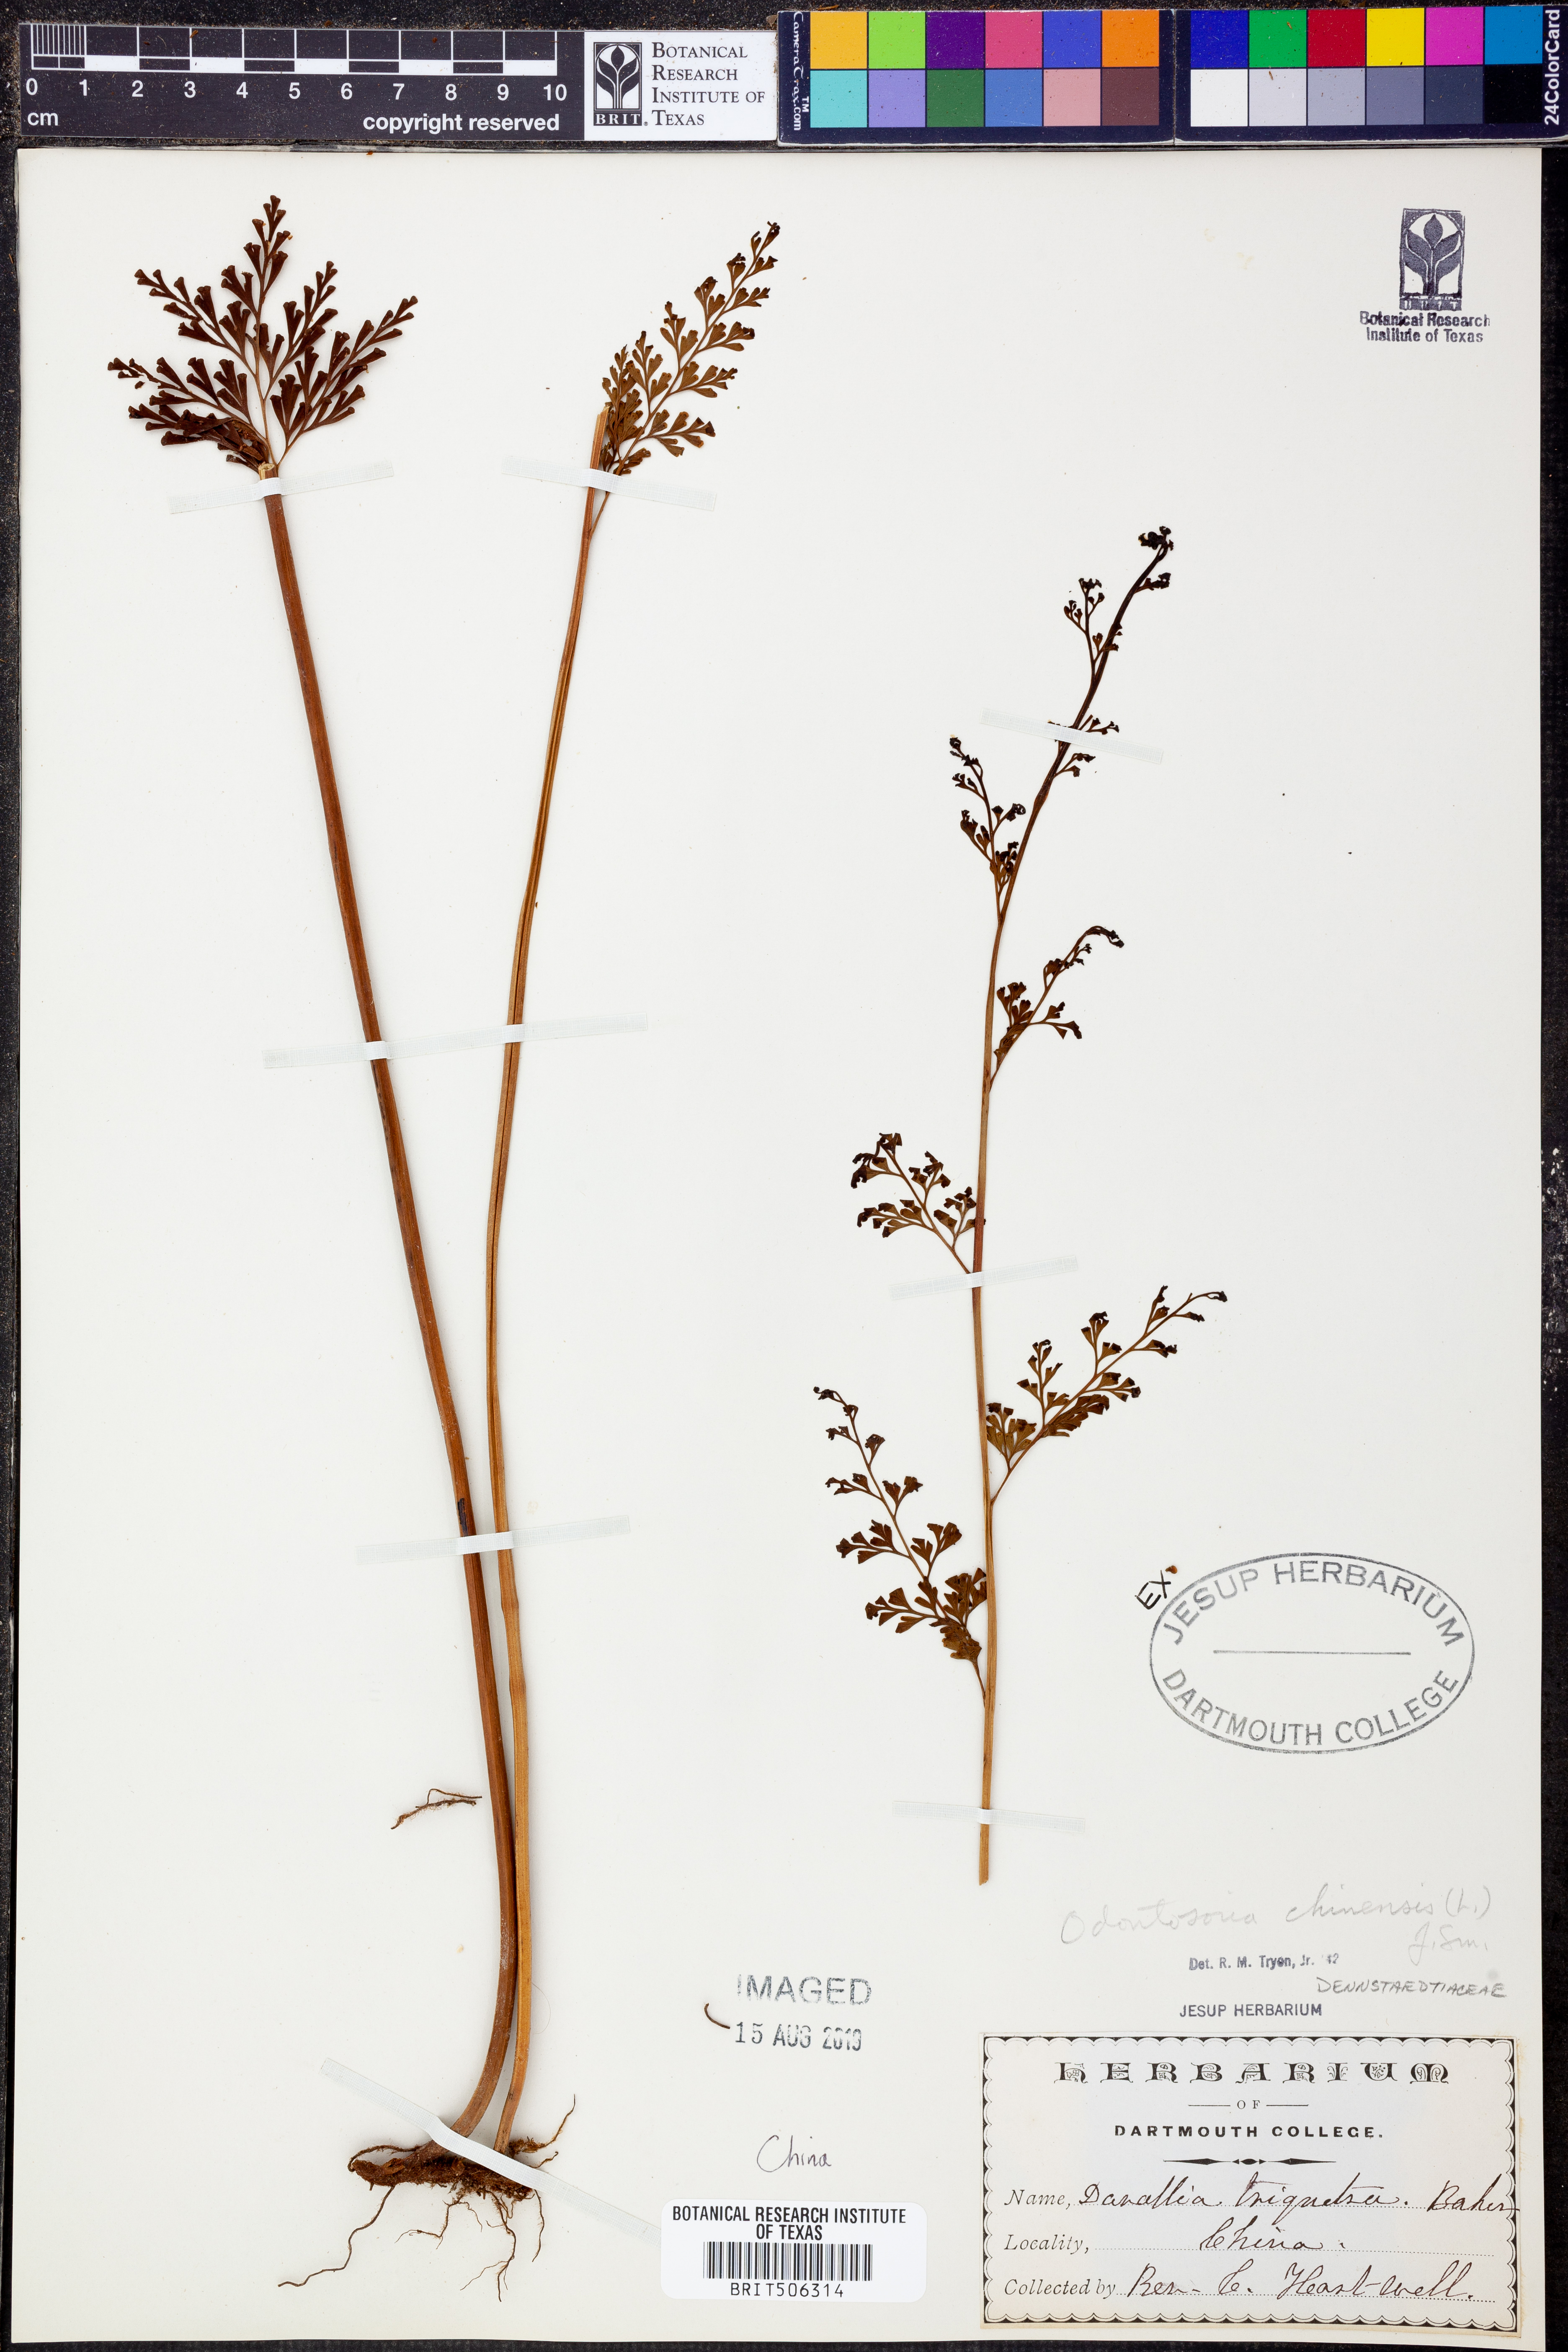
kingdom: Plantae
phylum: Tracheophyta
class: Polypodiopsida
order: Polypodiales
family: Lindsaeaceae
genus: Odontosoria
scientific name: Odontosoria chinensis
